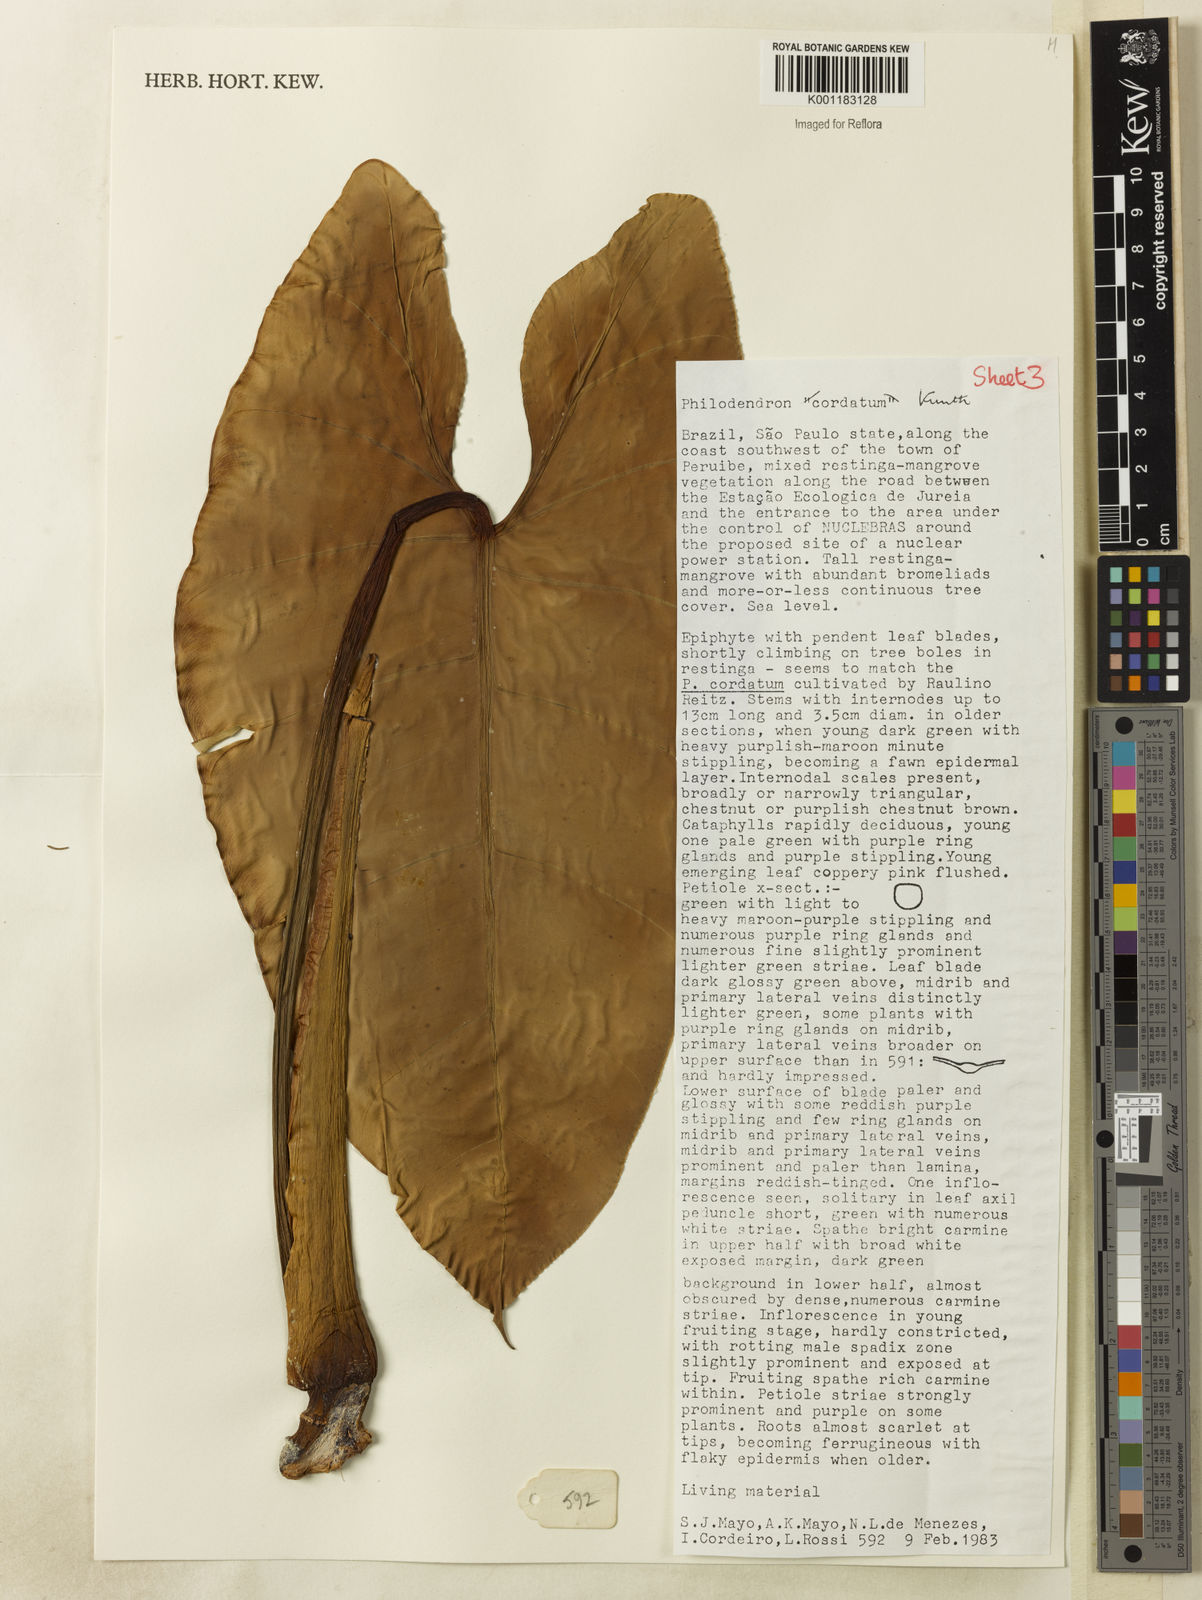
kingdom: Plantae
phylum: Tracheophyta
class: Liliopsida
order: Alismatales
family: Araceae
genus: Philodendron
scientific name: Philodendron cordatum
